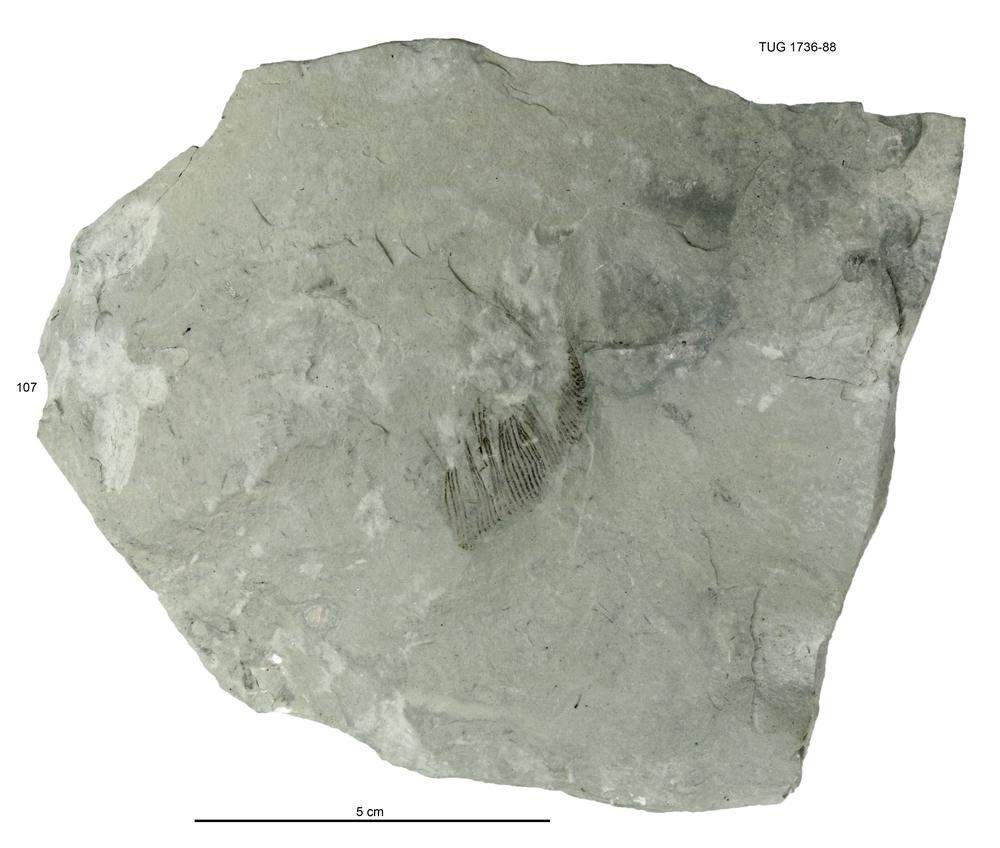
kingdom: Animalia
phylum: Echinodermata
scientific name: Echinodermata
